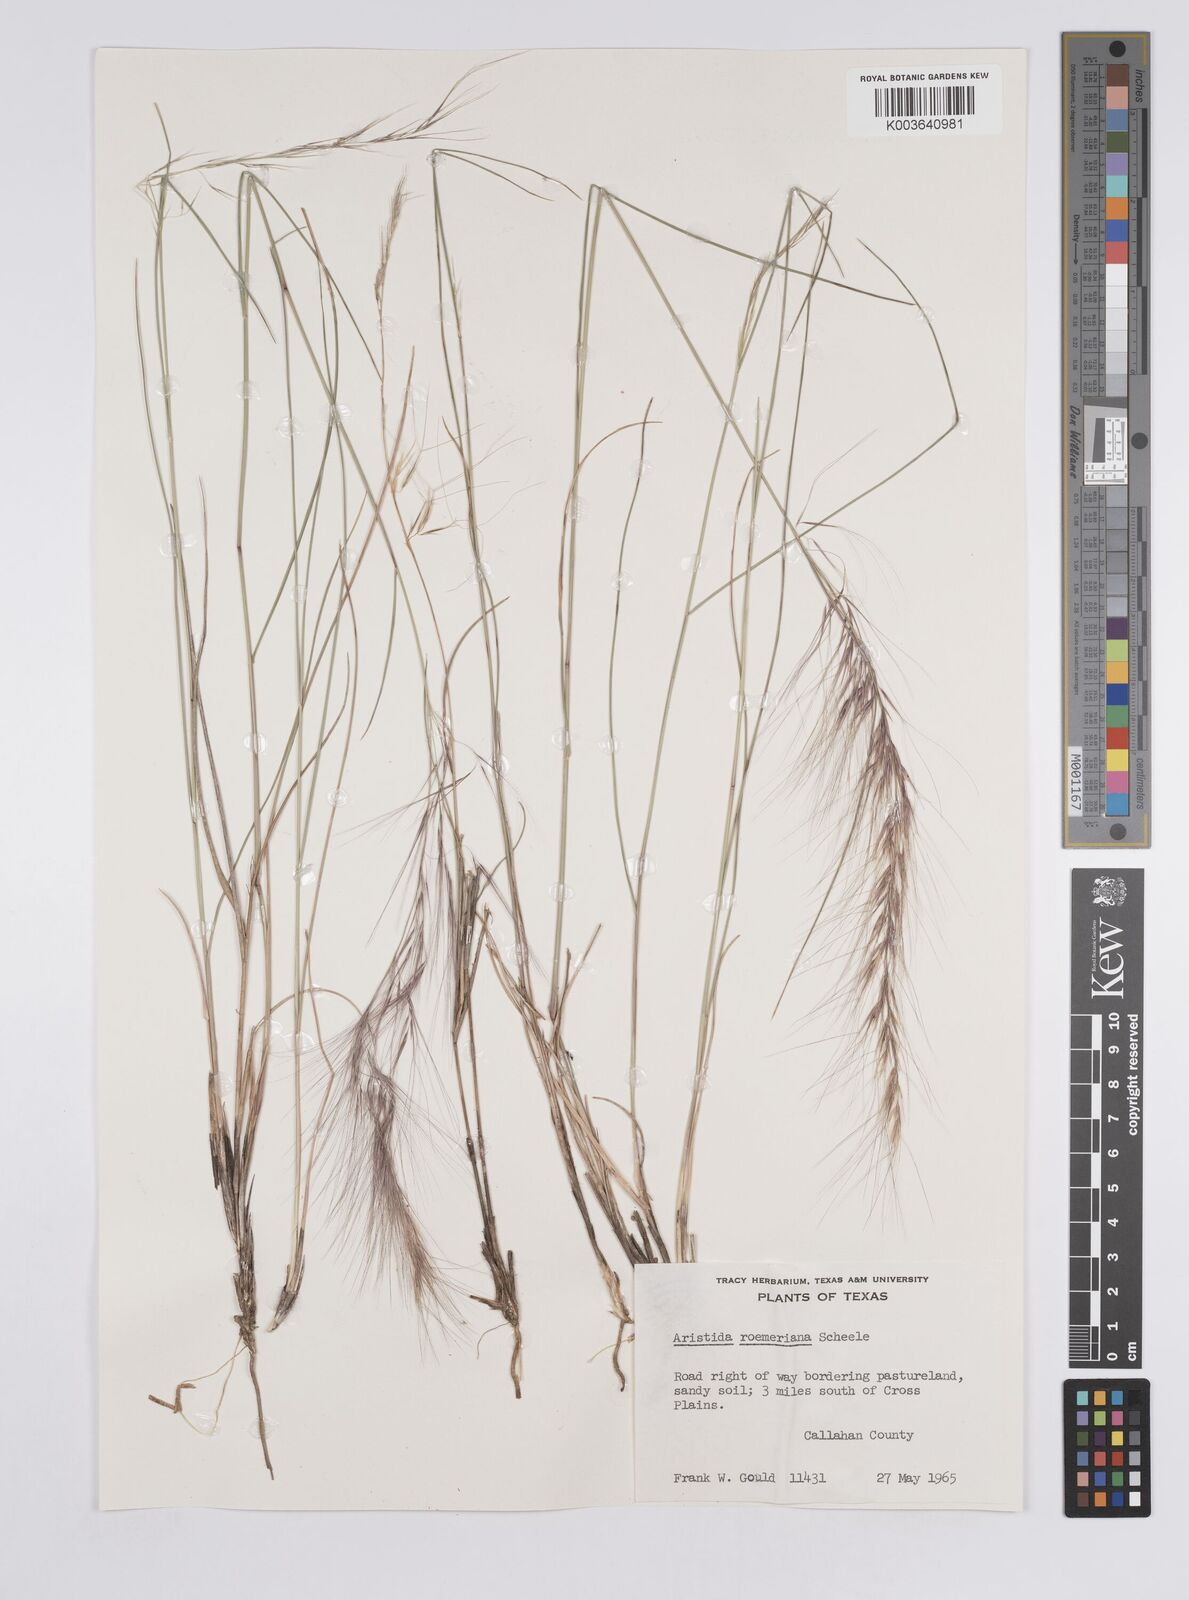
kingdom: Plantae
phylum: Tracheophyta
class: Liliopsida
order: Poales
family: Poaceae
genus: Aristida
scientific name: Aristida purpurea
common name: Purple threeawn
